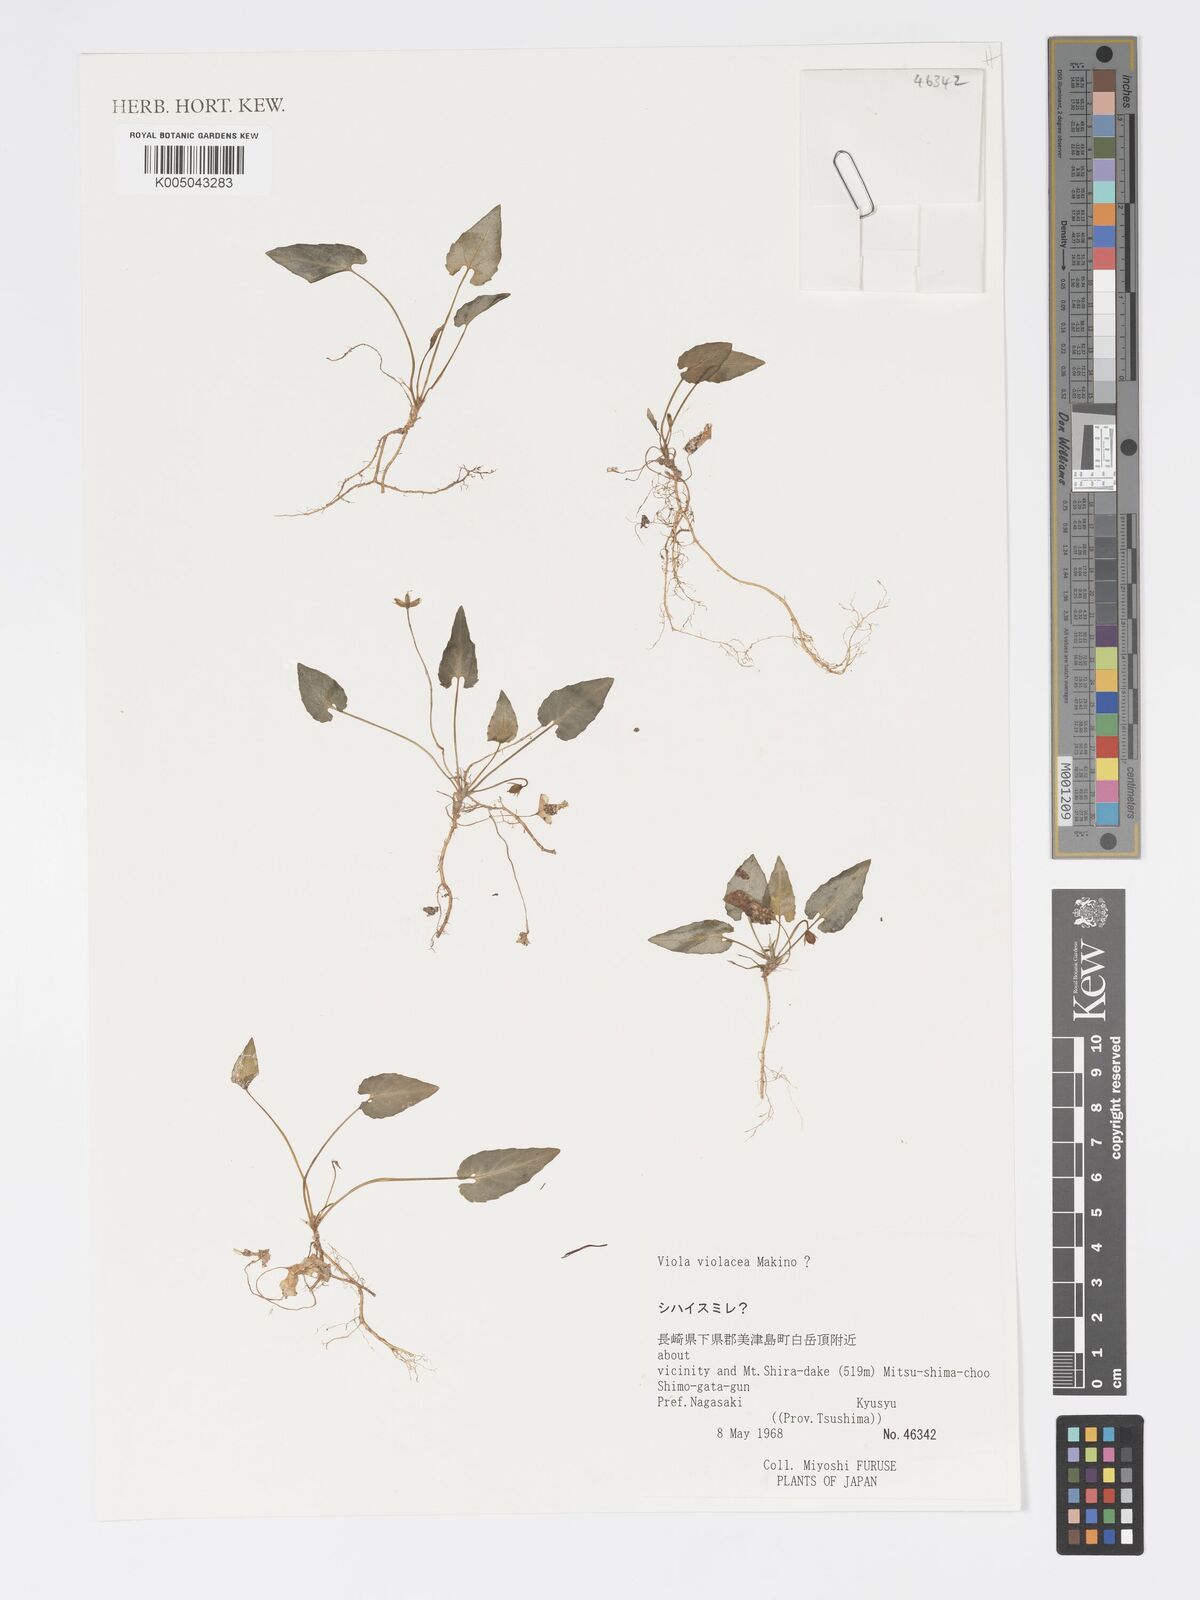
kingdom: Plantae
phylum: Tracheophyta
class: Magnoliopsida
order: Malpighiales
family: Violaceae
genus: Viola
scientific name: Viola violacea
